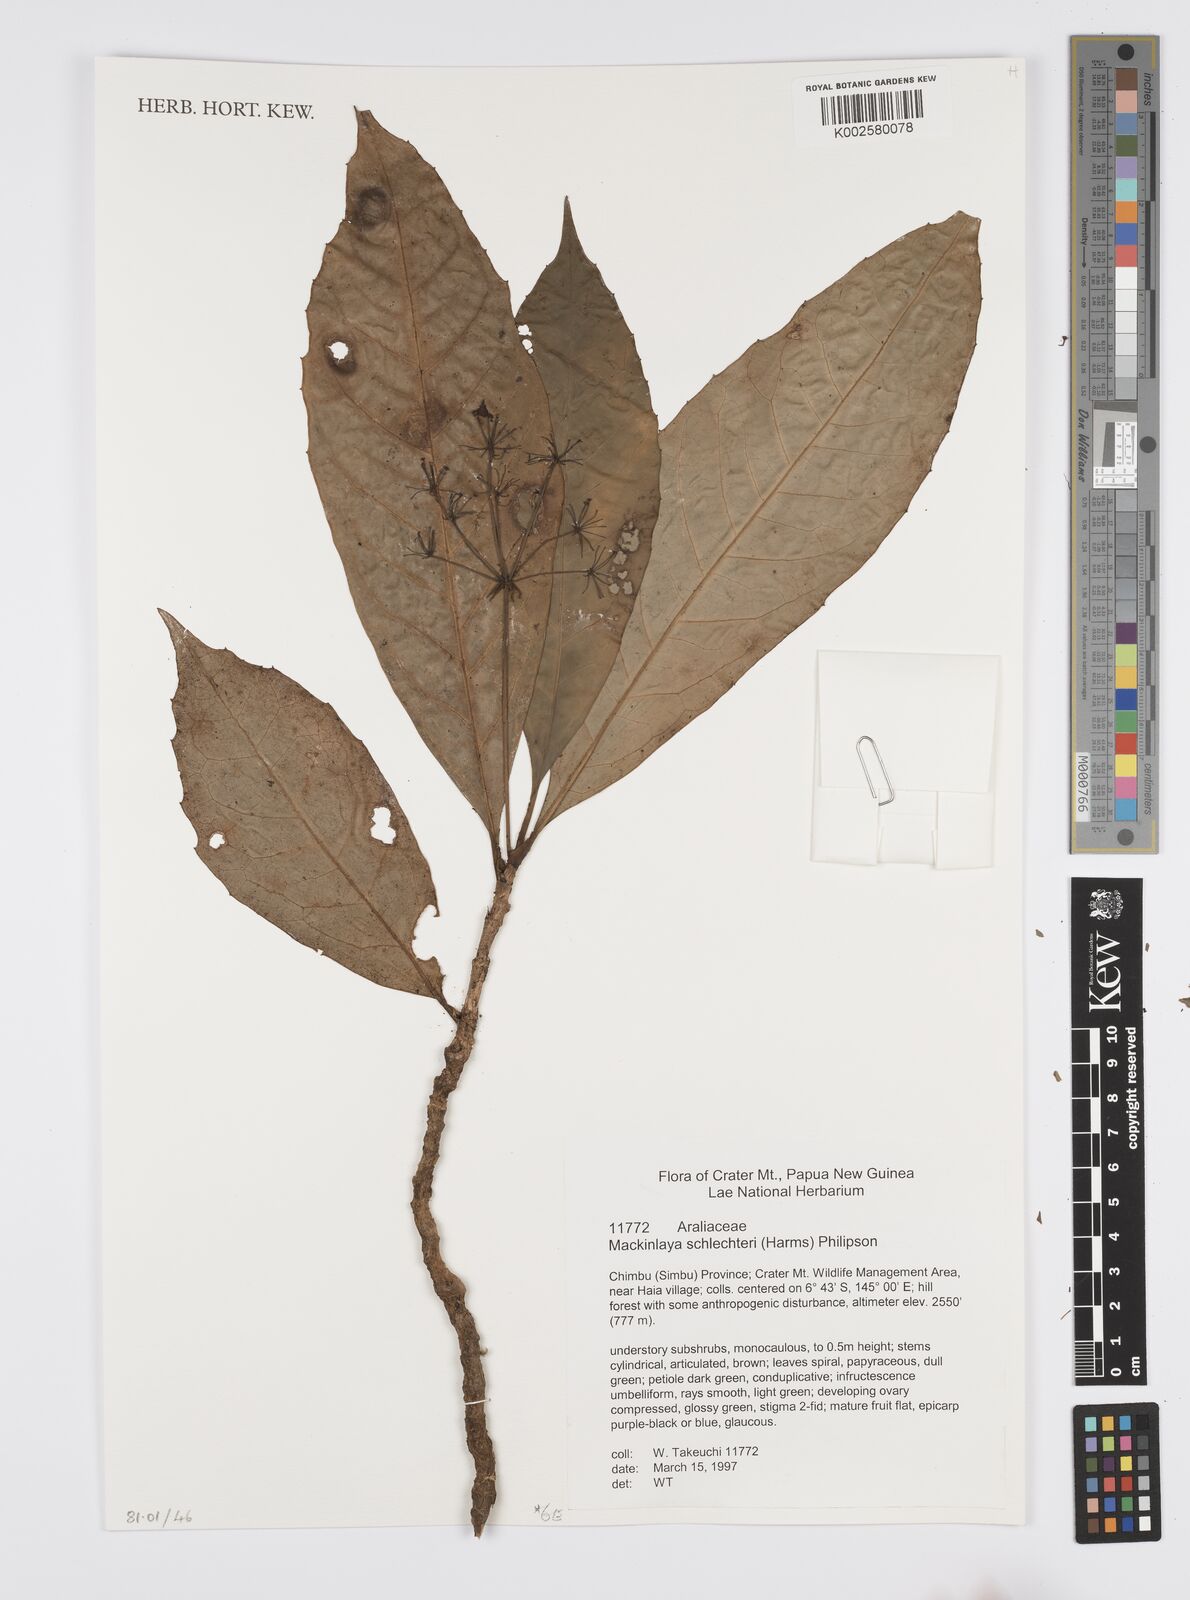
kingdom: Plantae
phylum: Tracheophyta
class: Magnoliopsida
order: Apiales
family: Apiaceae
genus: Mackinlaya
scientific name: Mackinlaya schlechteri
